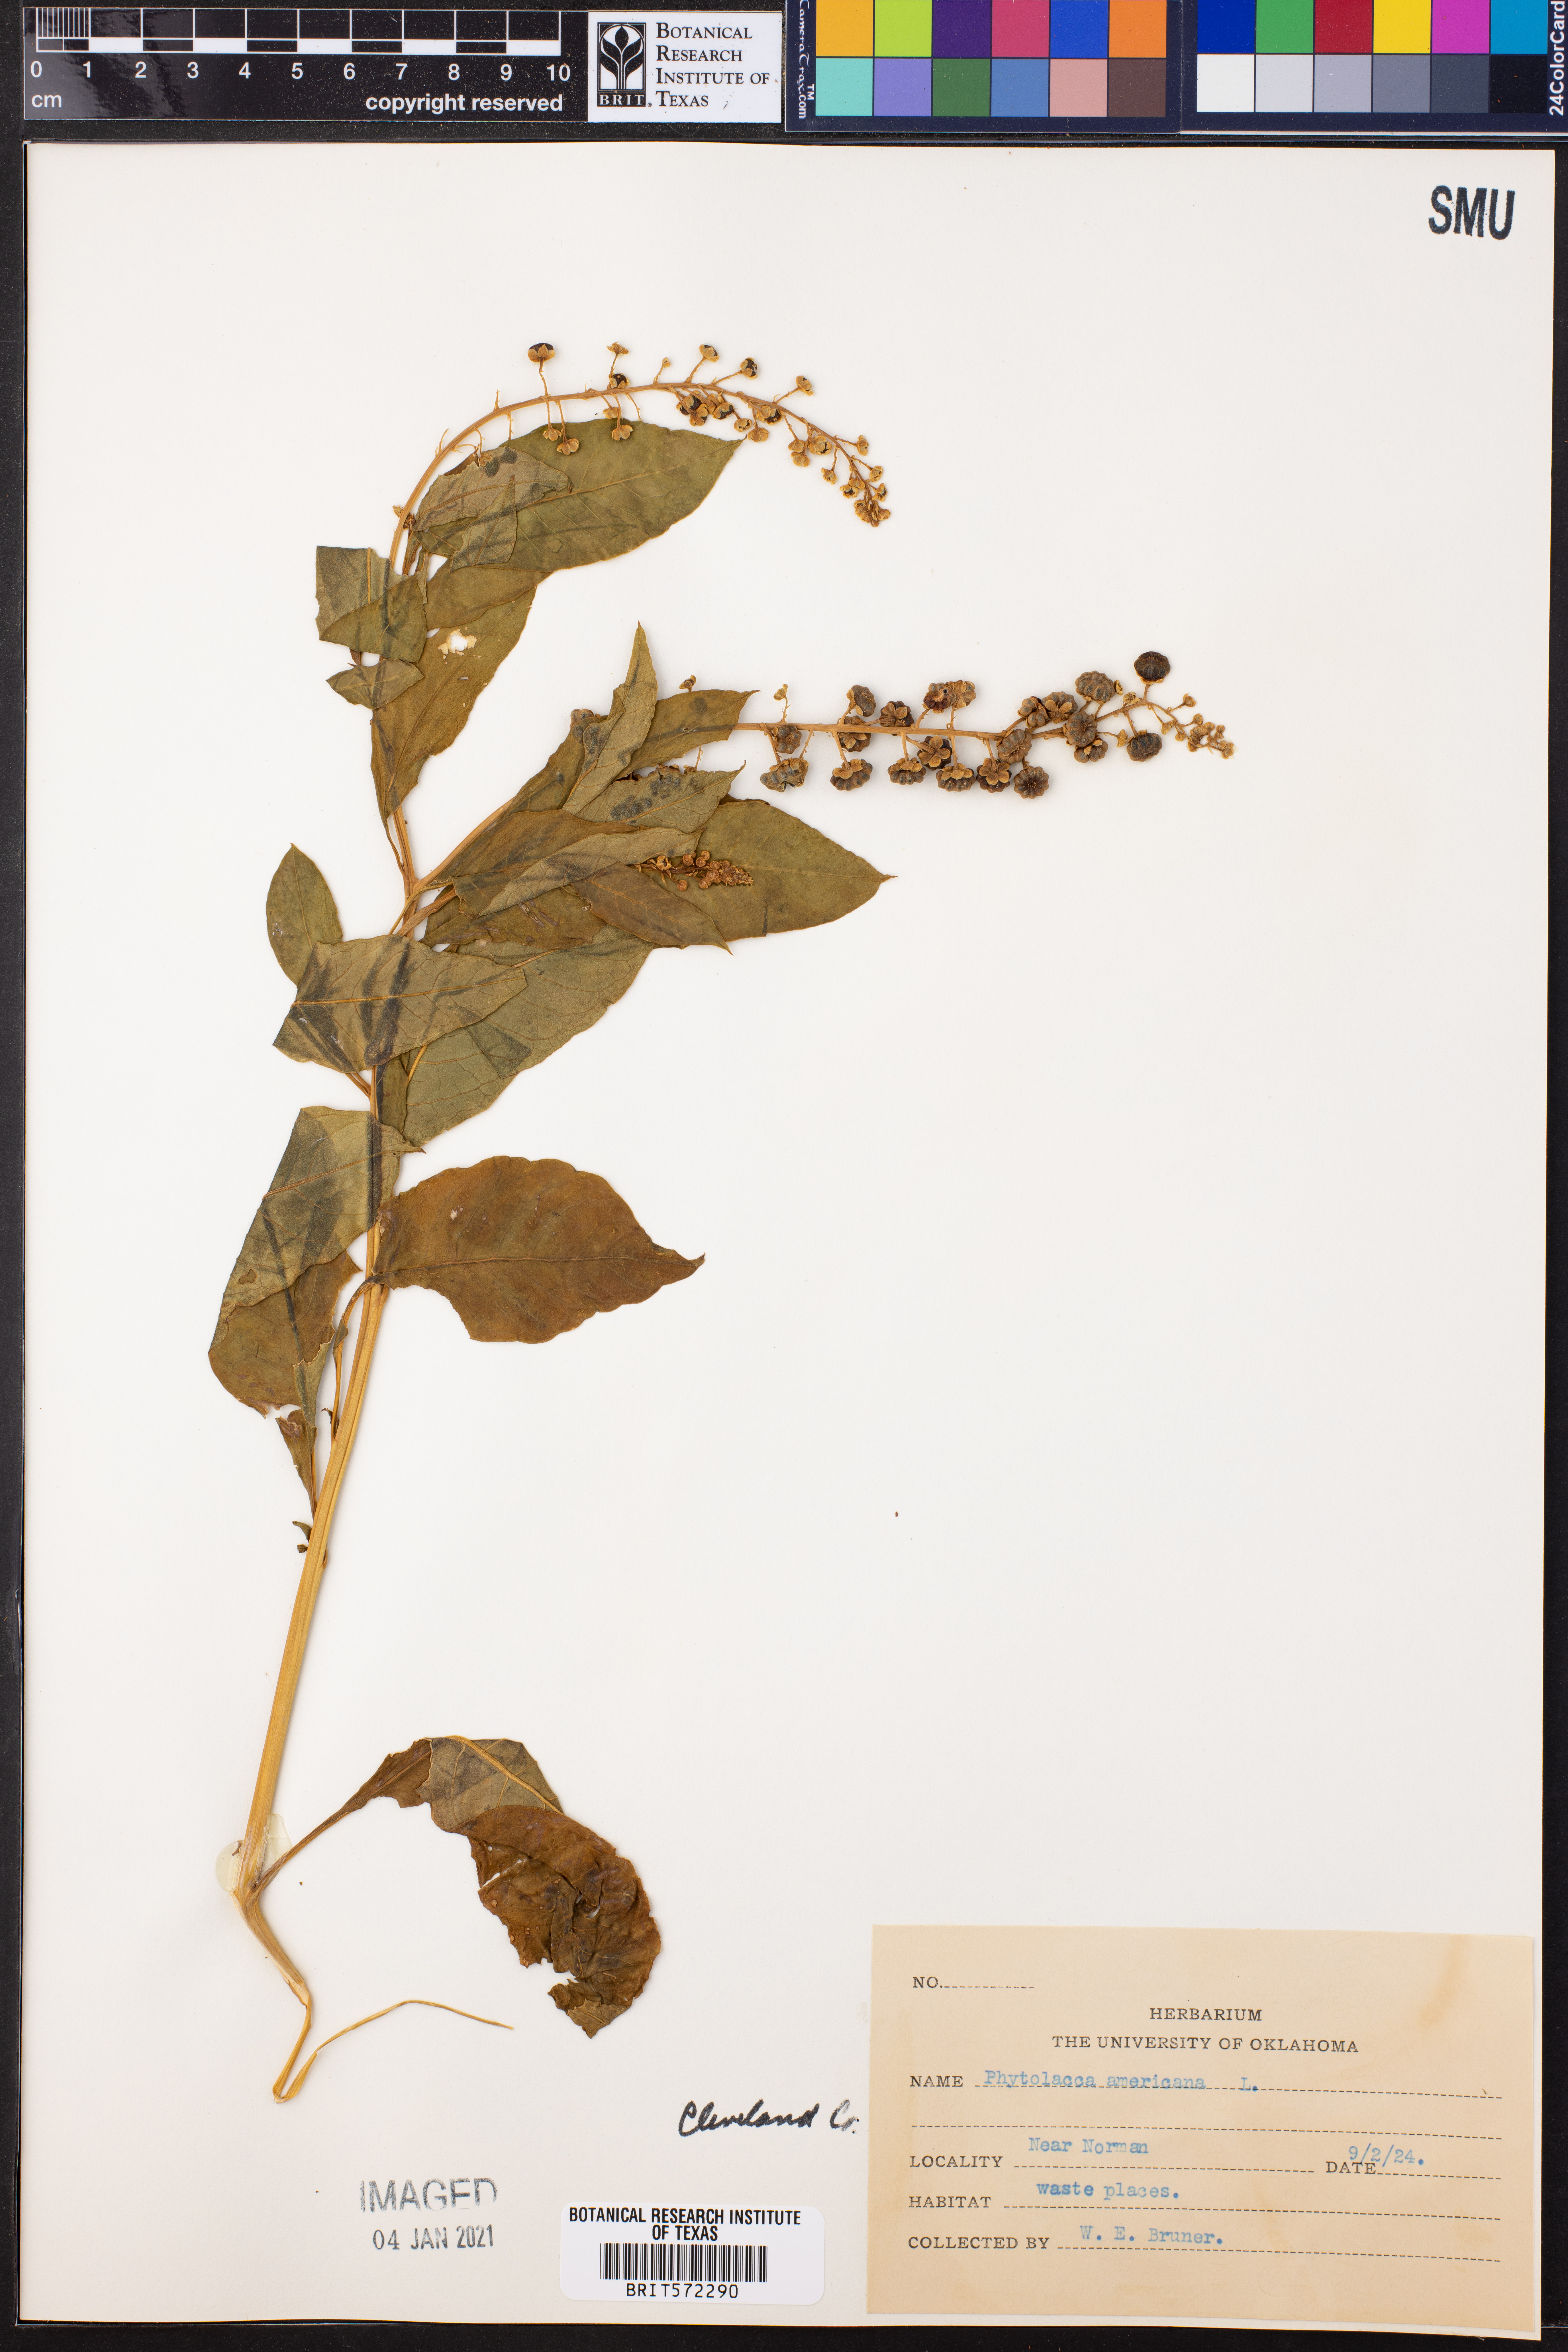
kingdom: Plantae
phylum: Tracheophyta
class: Magnoliopsida
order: Caryophyllales
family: Phytolaccaceae
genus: Phytolacca
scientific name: Phytolacca americana
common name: American pokeweed
